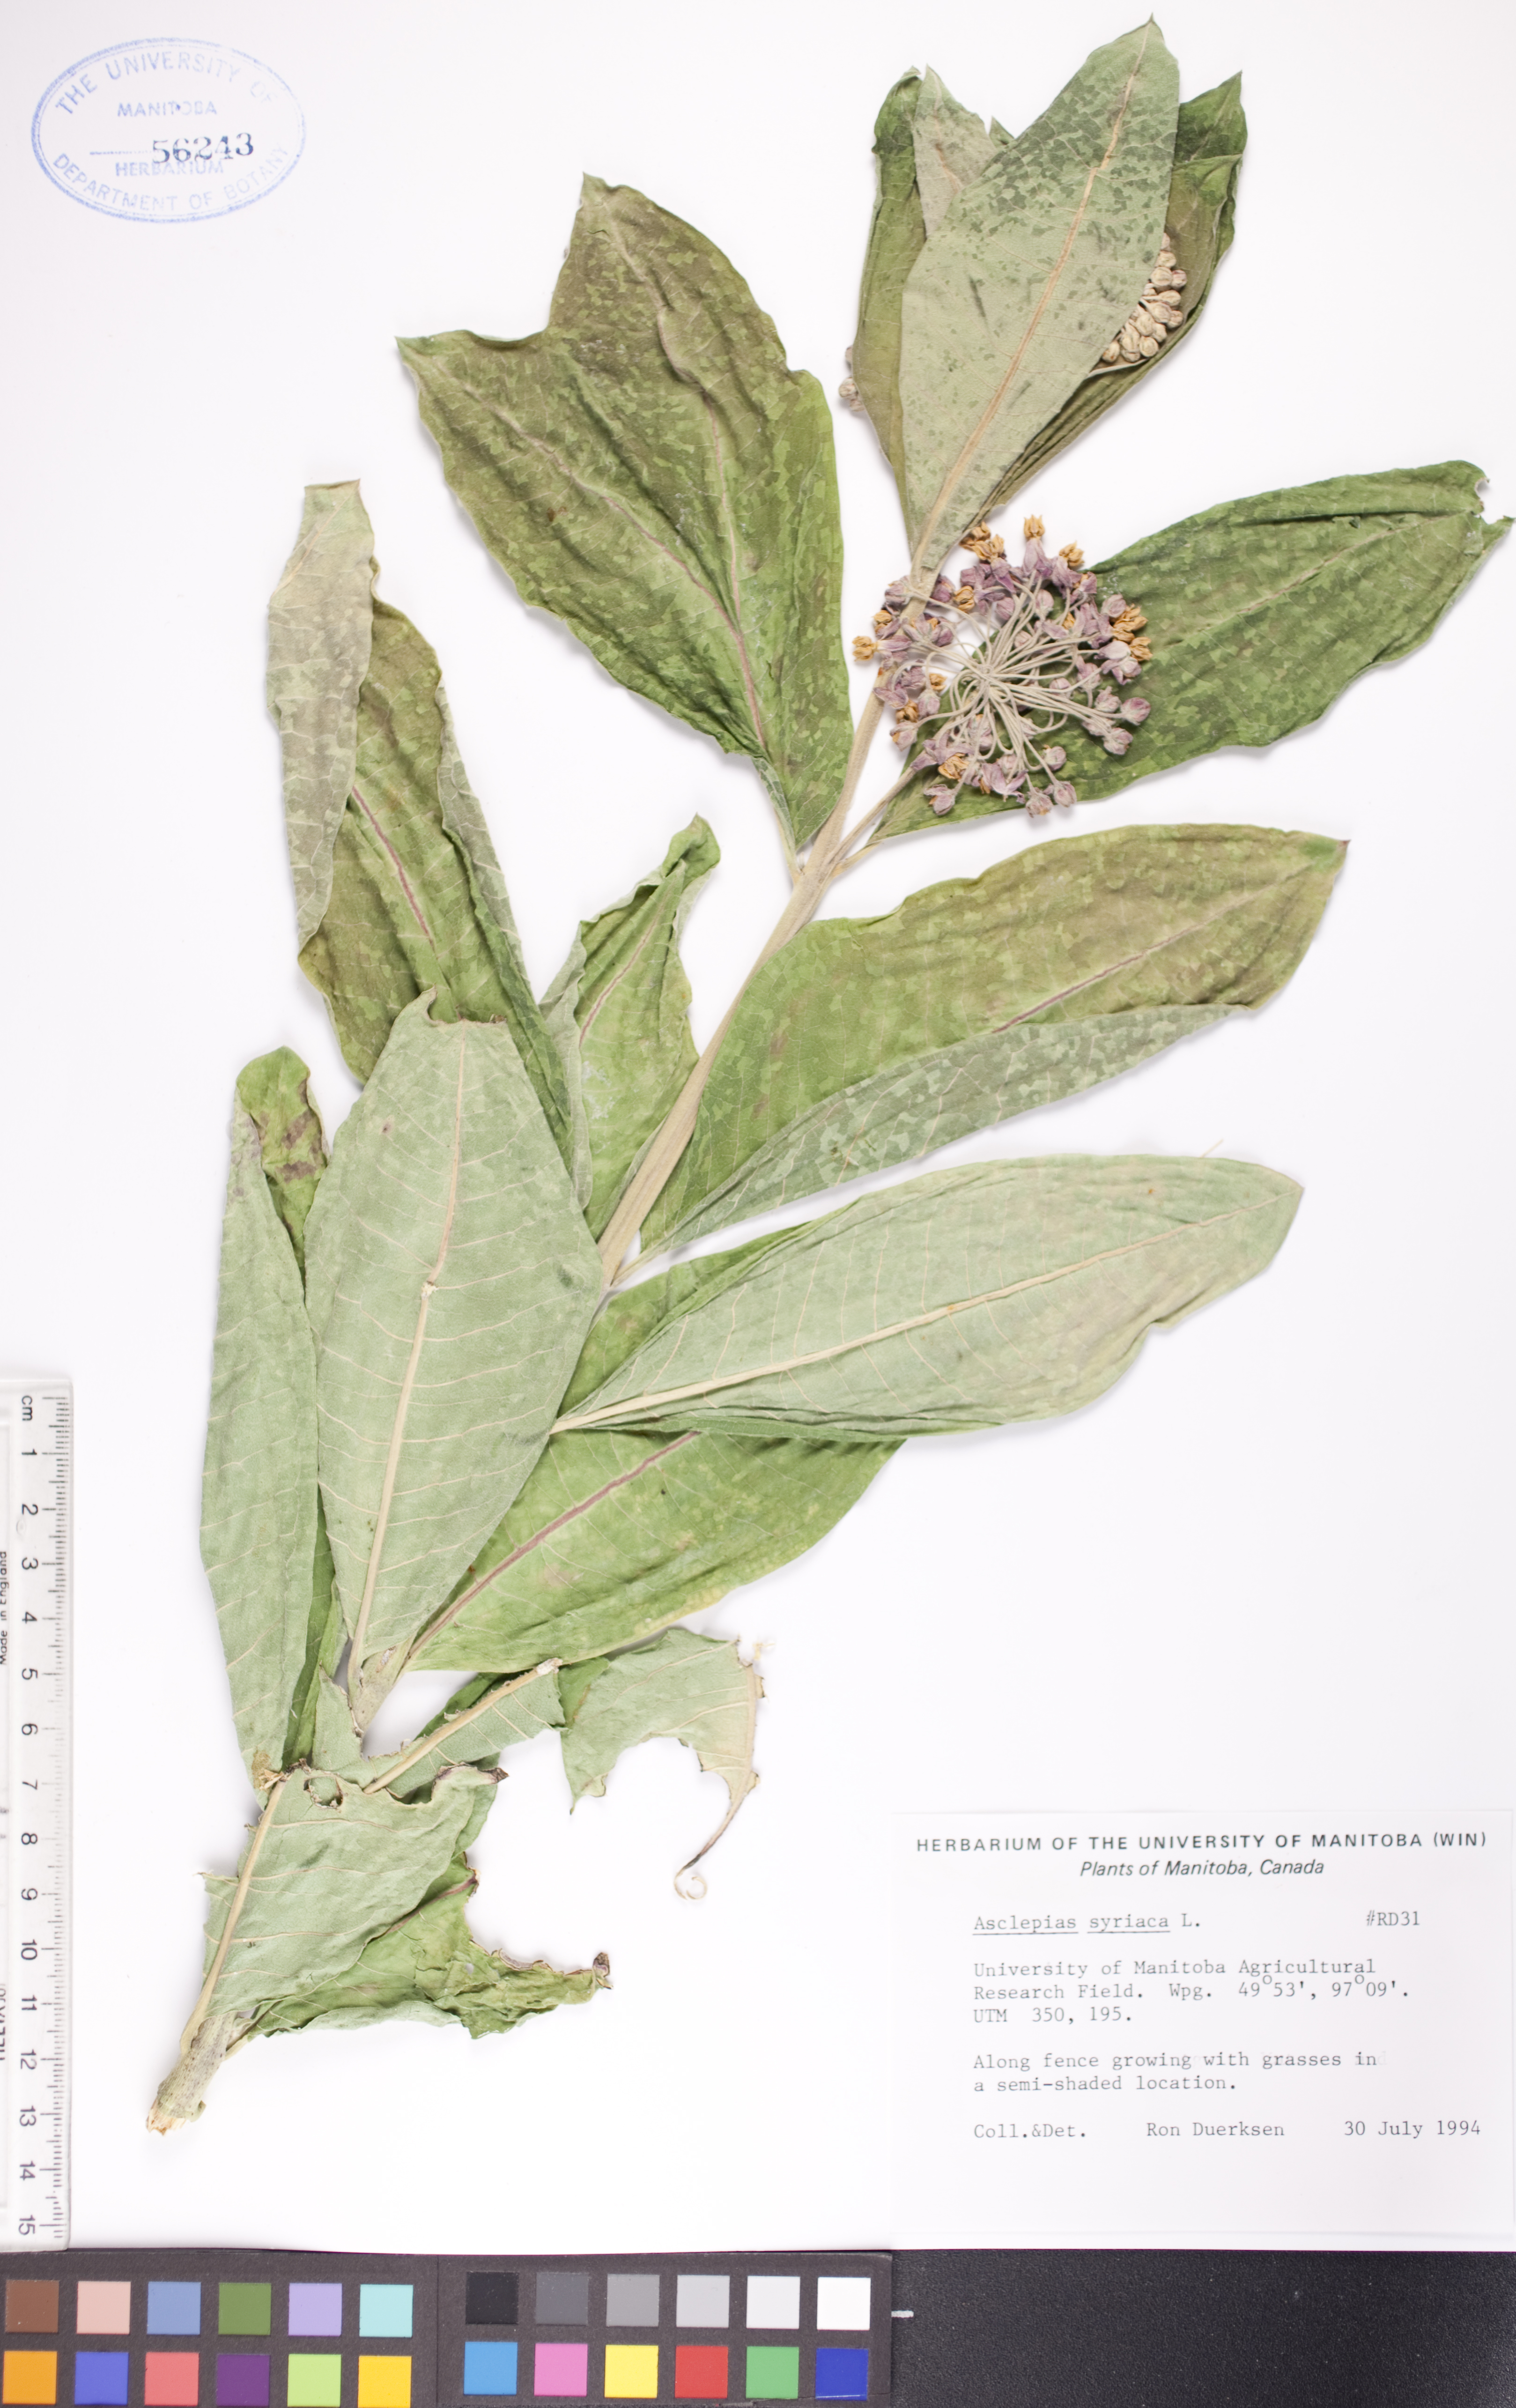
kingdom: Plantae
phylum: Tracheophyta
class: Magnoliopsida
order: Gentianales
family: Apocynaceae
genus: Asclepias
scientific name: Asclepias syriaca
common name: Common milkweed
